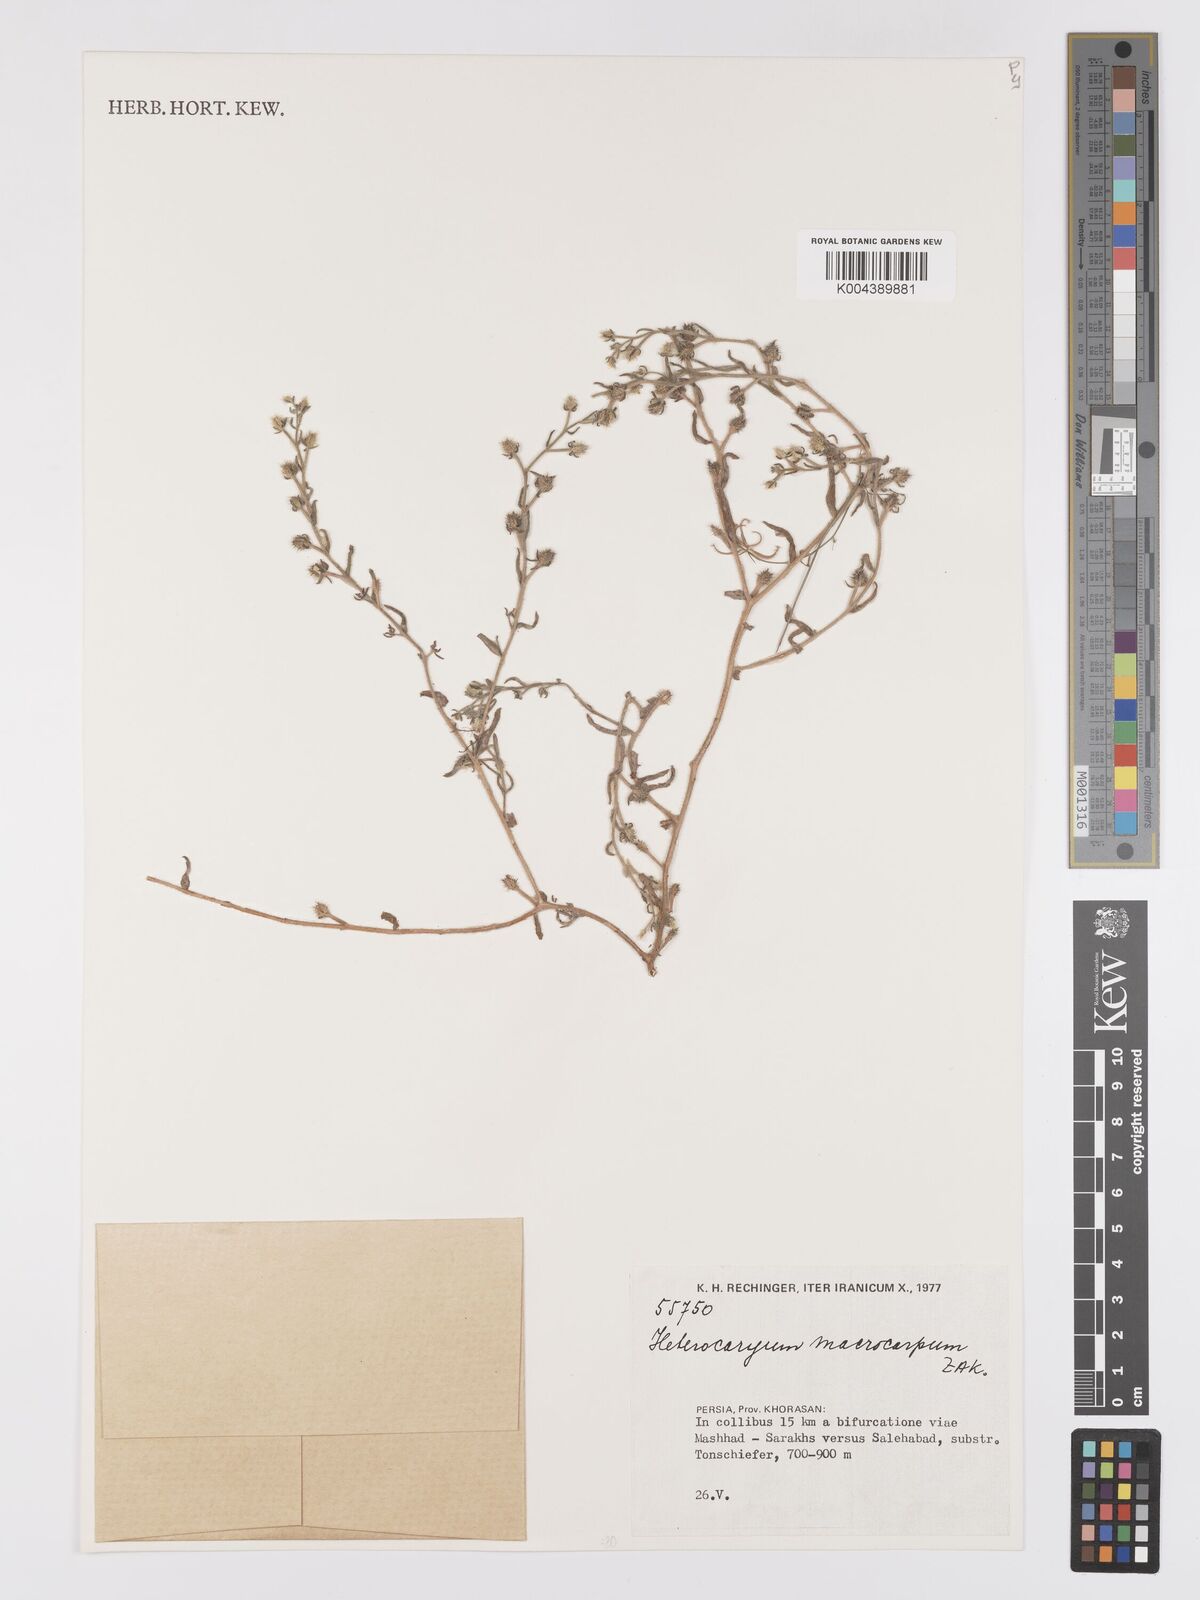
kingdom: Plantae
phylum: Tracheophyta
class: Magnoliopsida
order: Boraginales
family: Boraginaceae
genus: Lappula
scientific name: Lappula
